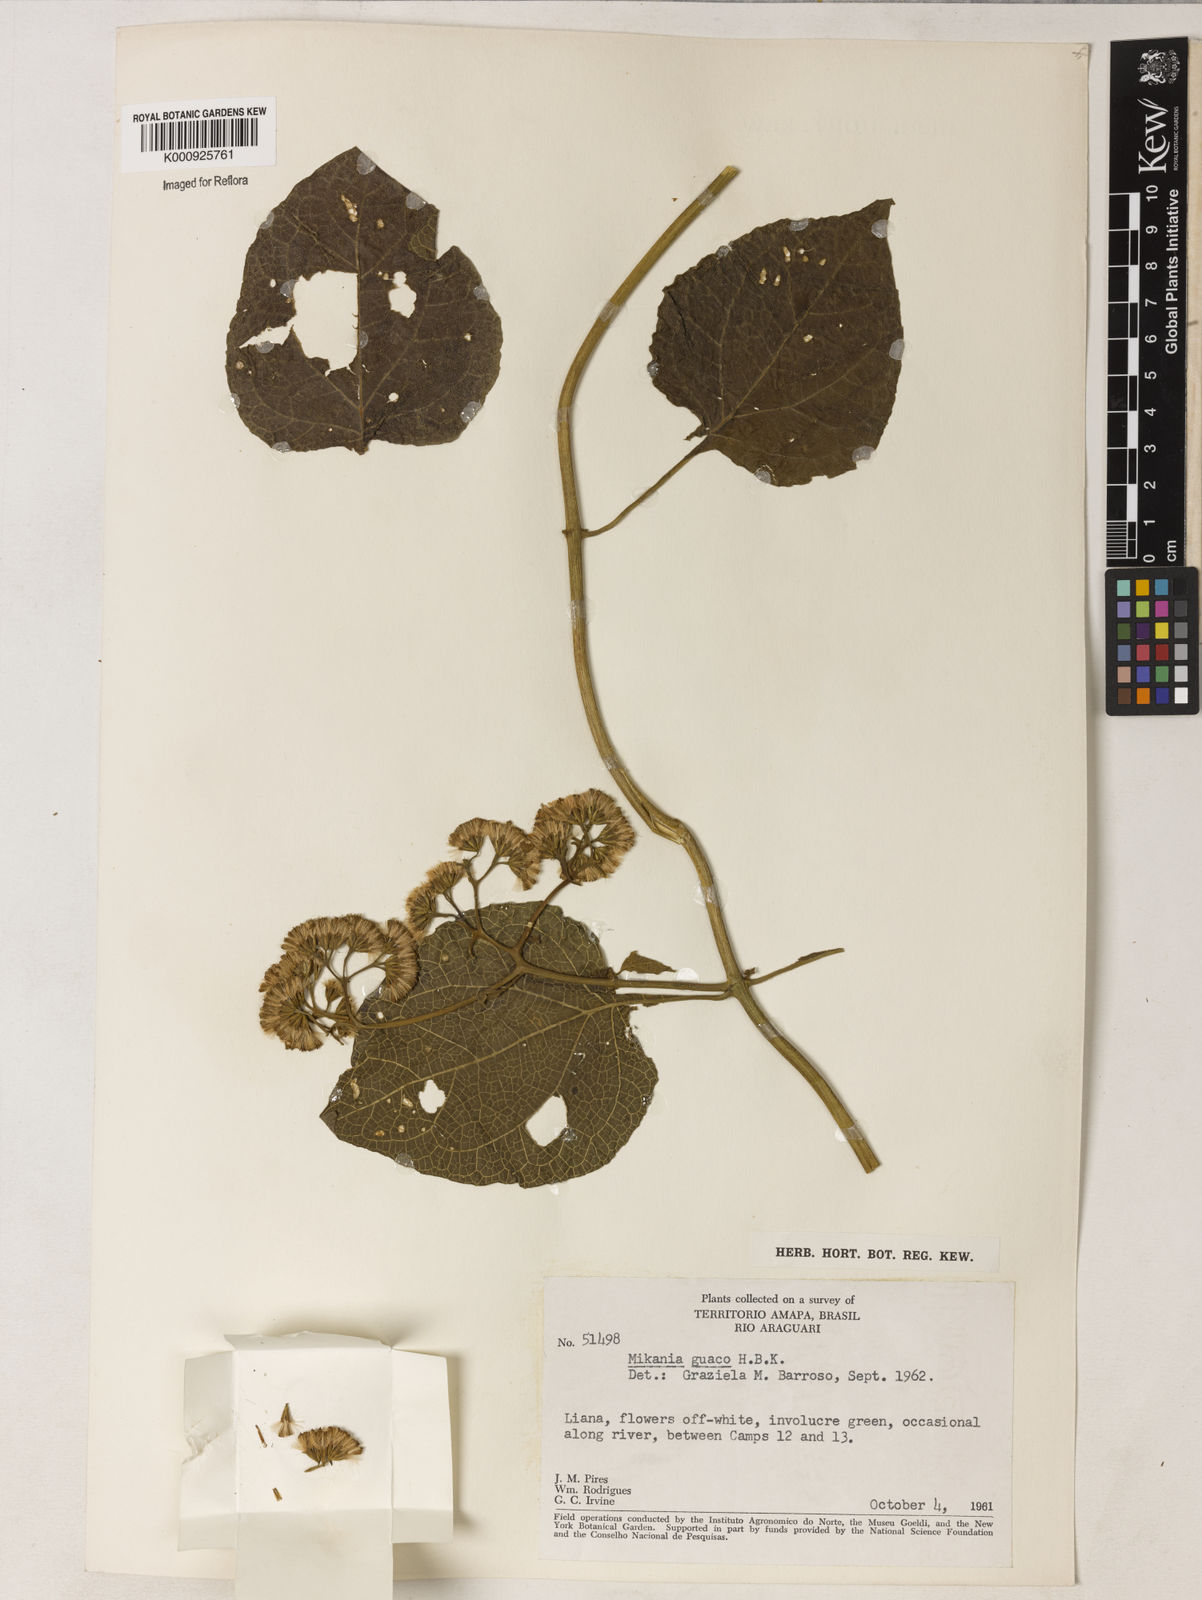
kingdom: Plantae
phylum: Tracheophyta
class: Magnoliopsida
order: Asterales
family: Asteraceae
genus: Mikania
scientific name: Mikania guaco
